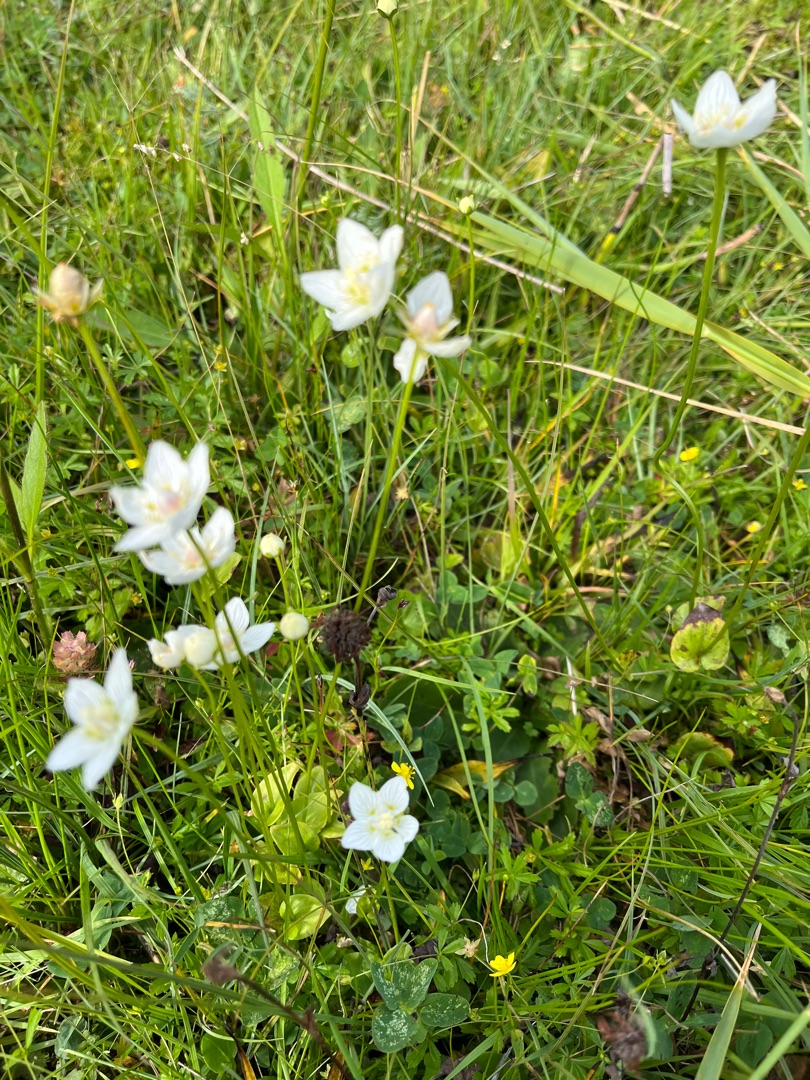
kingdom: Plantae
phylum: Tracheophyta
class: Magnoliopsida
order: Celastrales
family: Parnassiaceae
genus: Parnassia
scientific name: Parnassia palustris
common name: Leverurt
